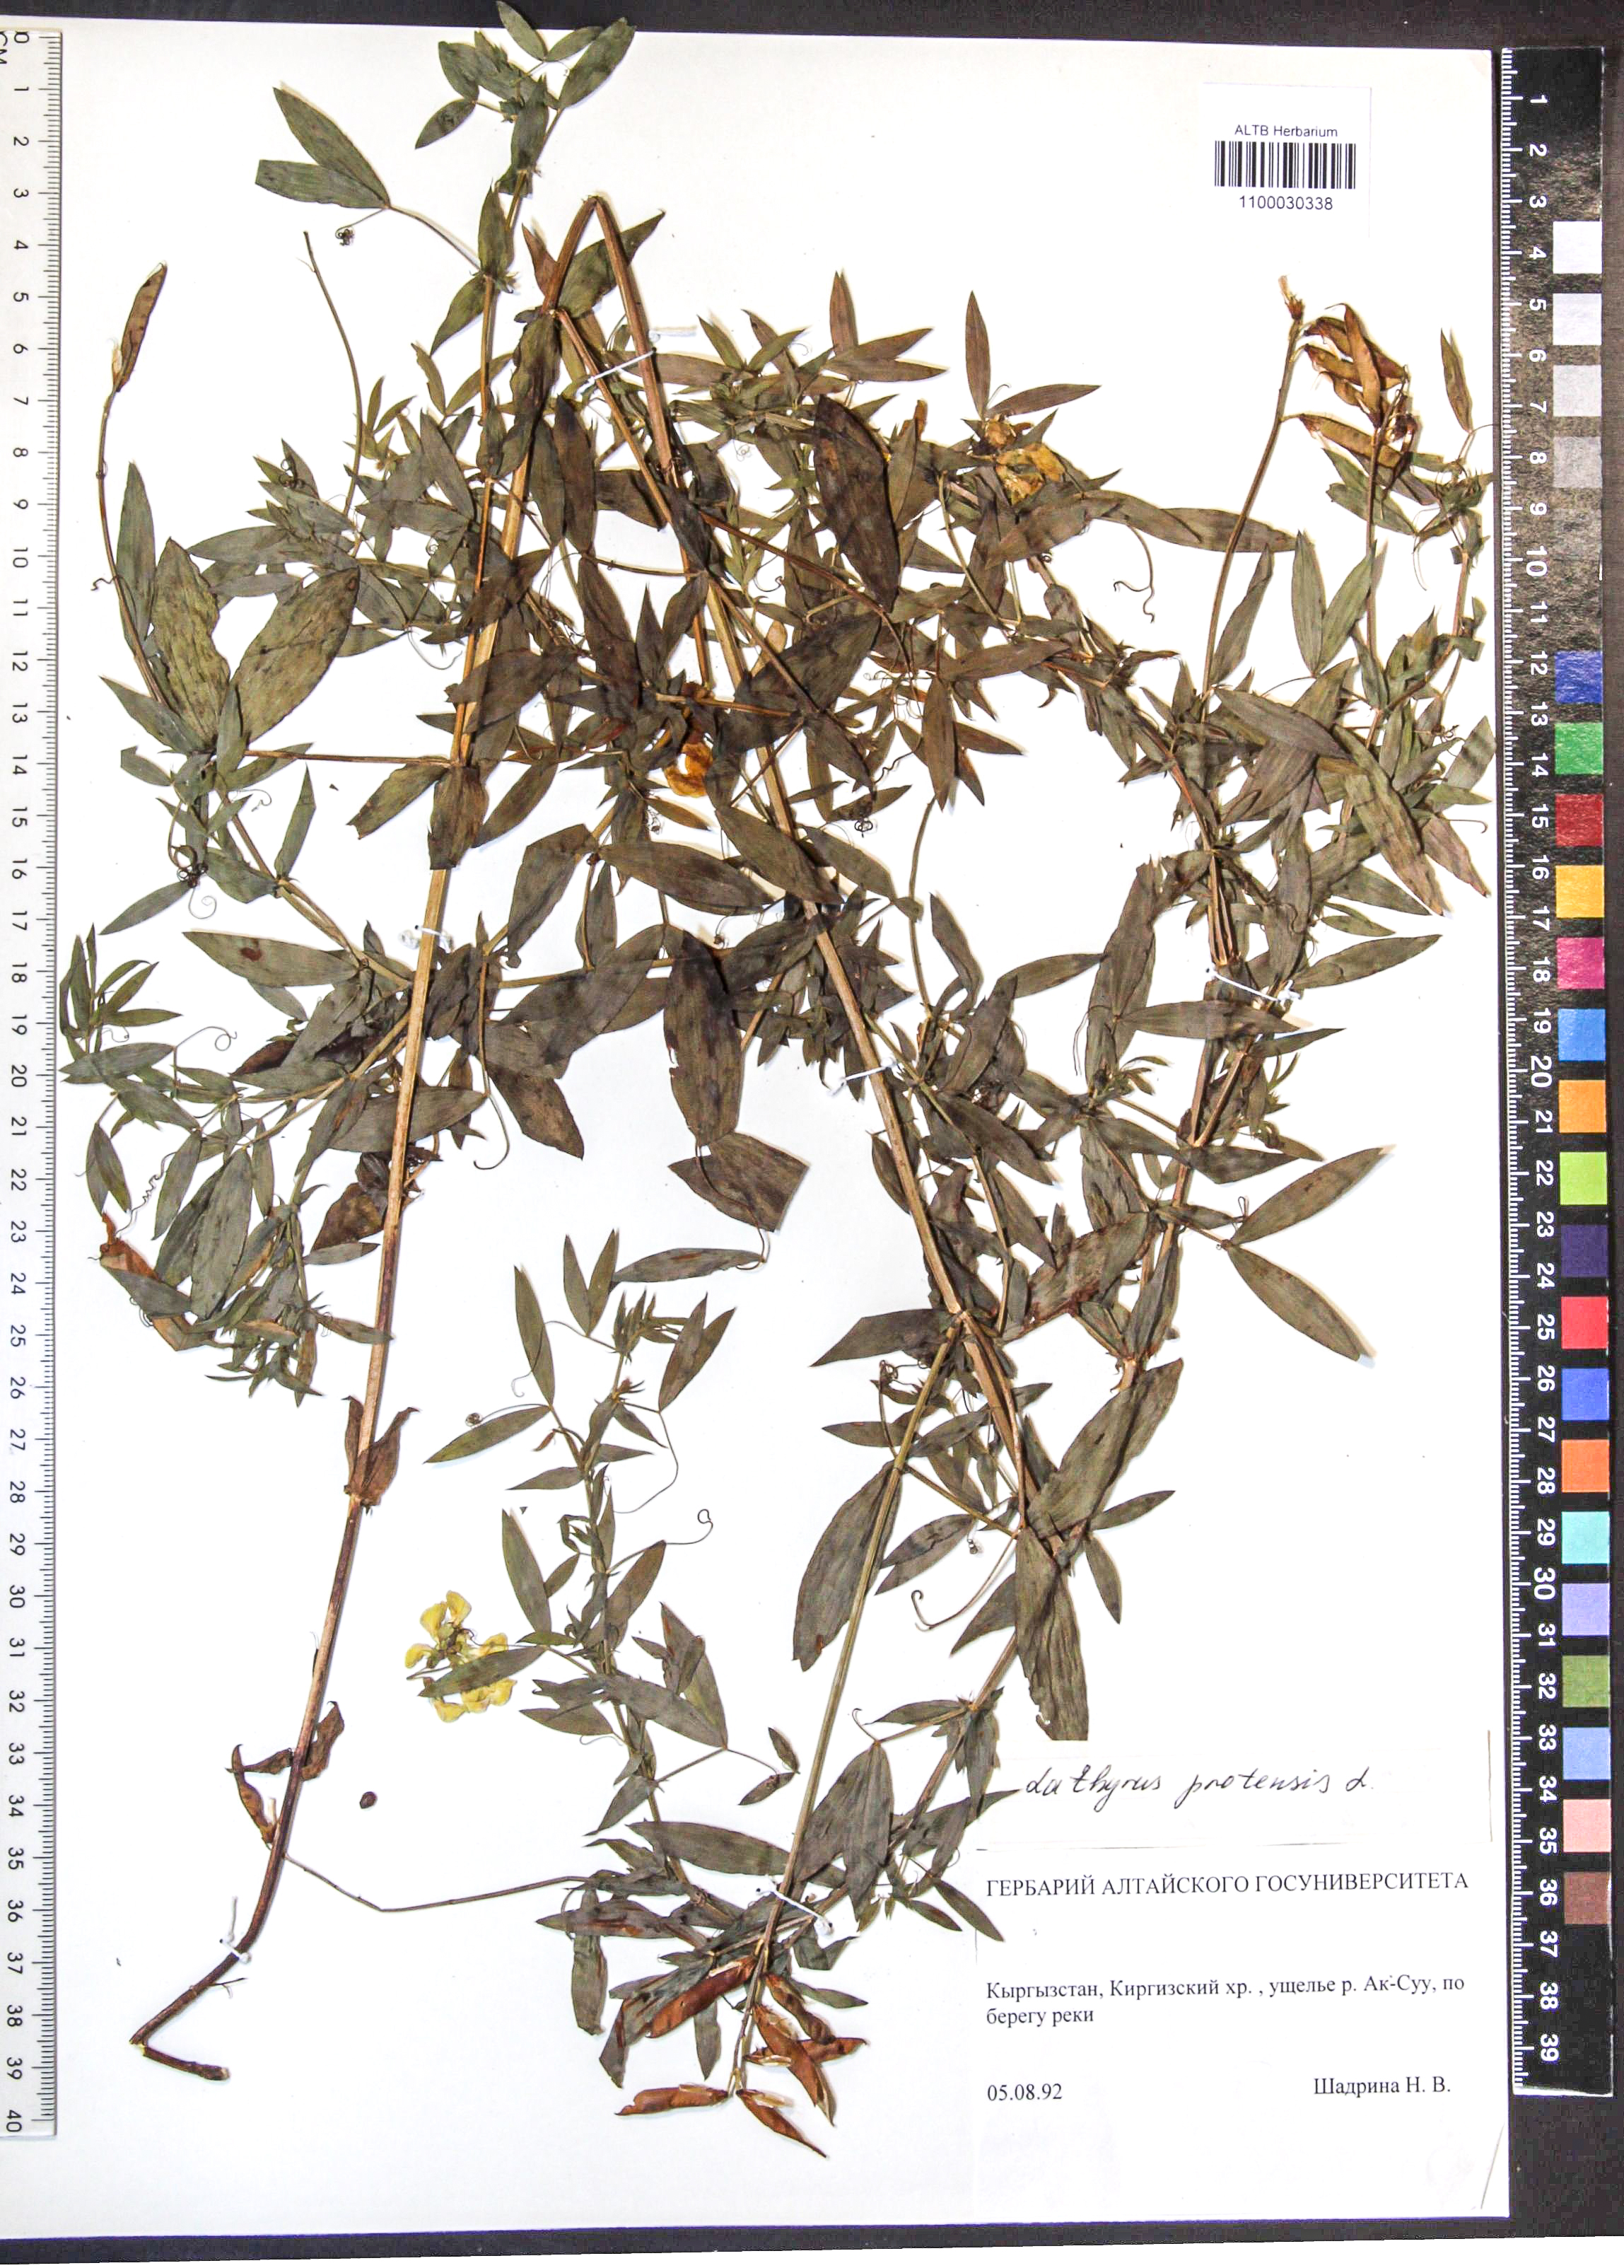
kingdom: Plantae
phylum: Tracheophyta
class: Magnoliopsida
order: Fabales
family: Fabaceae
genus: Lathyrus
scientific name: Lathyrus pratensis
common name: Meadow vetchling
